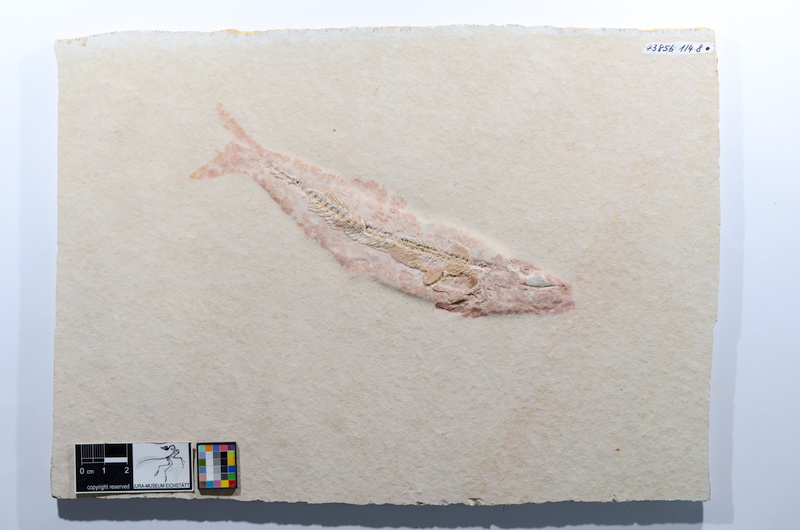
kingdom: Animalia
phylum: Chordata
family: Ascalaboidae
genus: Tharsis
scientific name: Tharsis dubius
